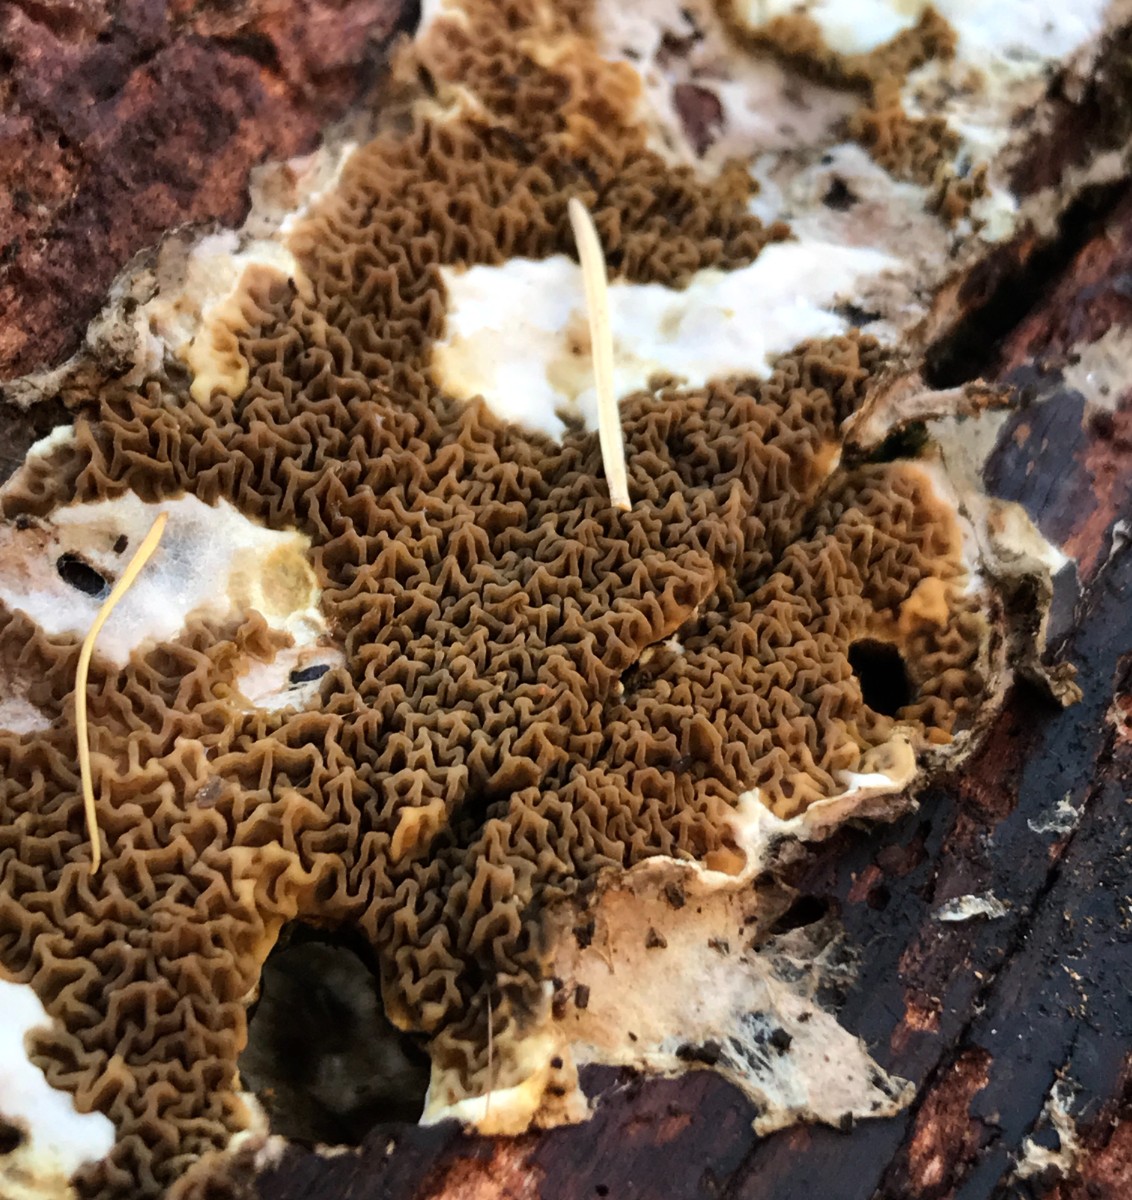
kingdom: Fungi
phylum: Basidiomycota
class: Agaricomycetes
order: Boletales
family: Serpulaceae
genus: Serpula
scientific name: Serpula himantioides
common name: tyndkødet hussvamp
